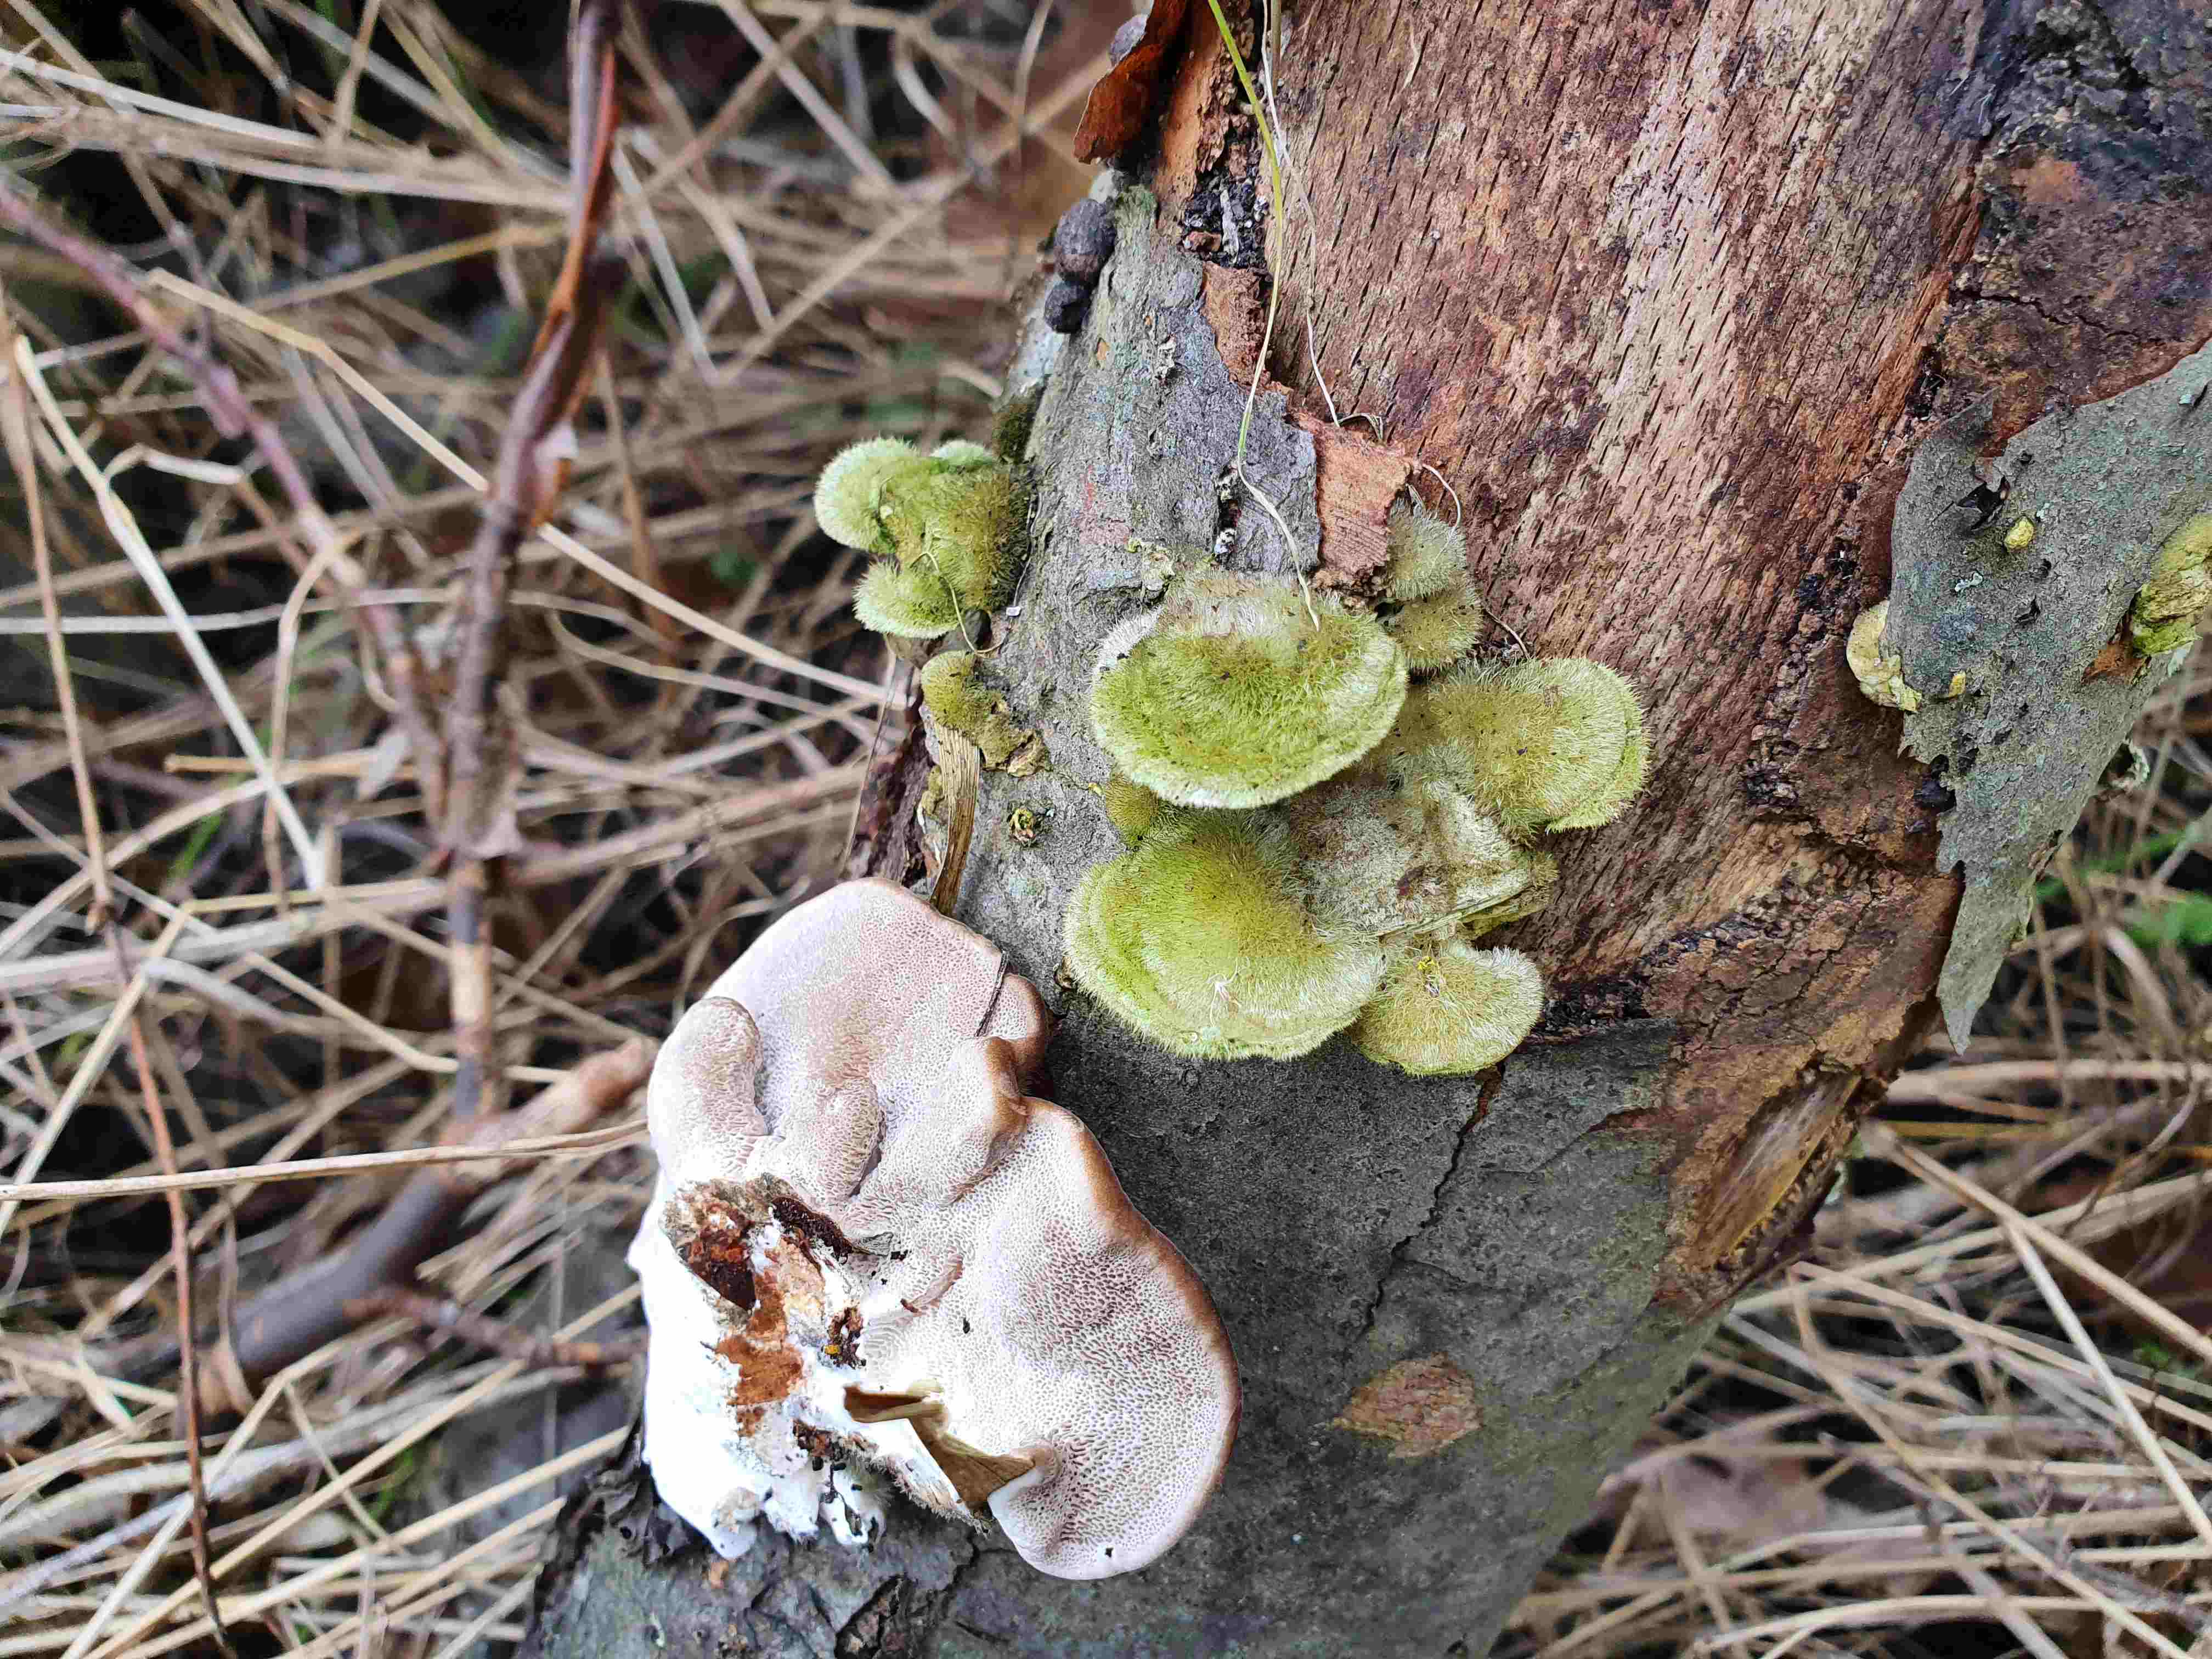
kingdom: Fungi
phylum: Basidiomycota
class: Agaricomycetes
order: Polyporales
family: Polyporaceae
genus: Trametes
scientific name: Trametes hirsuta
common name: håret læderporesvamp
